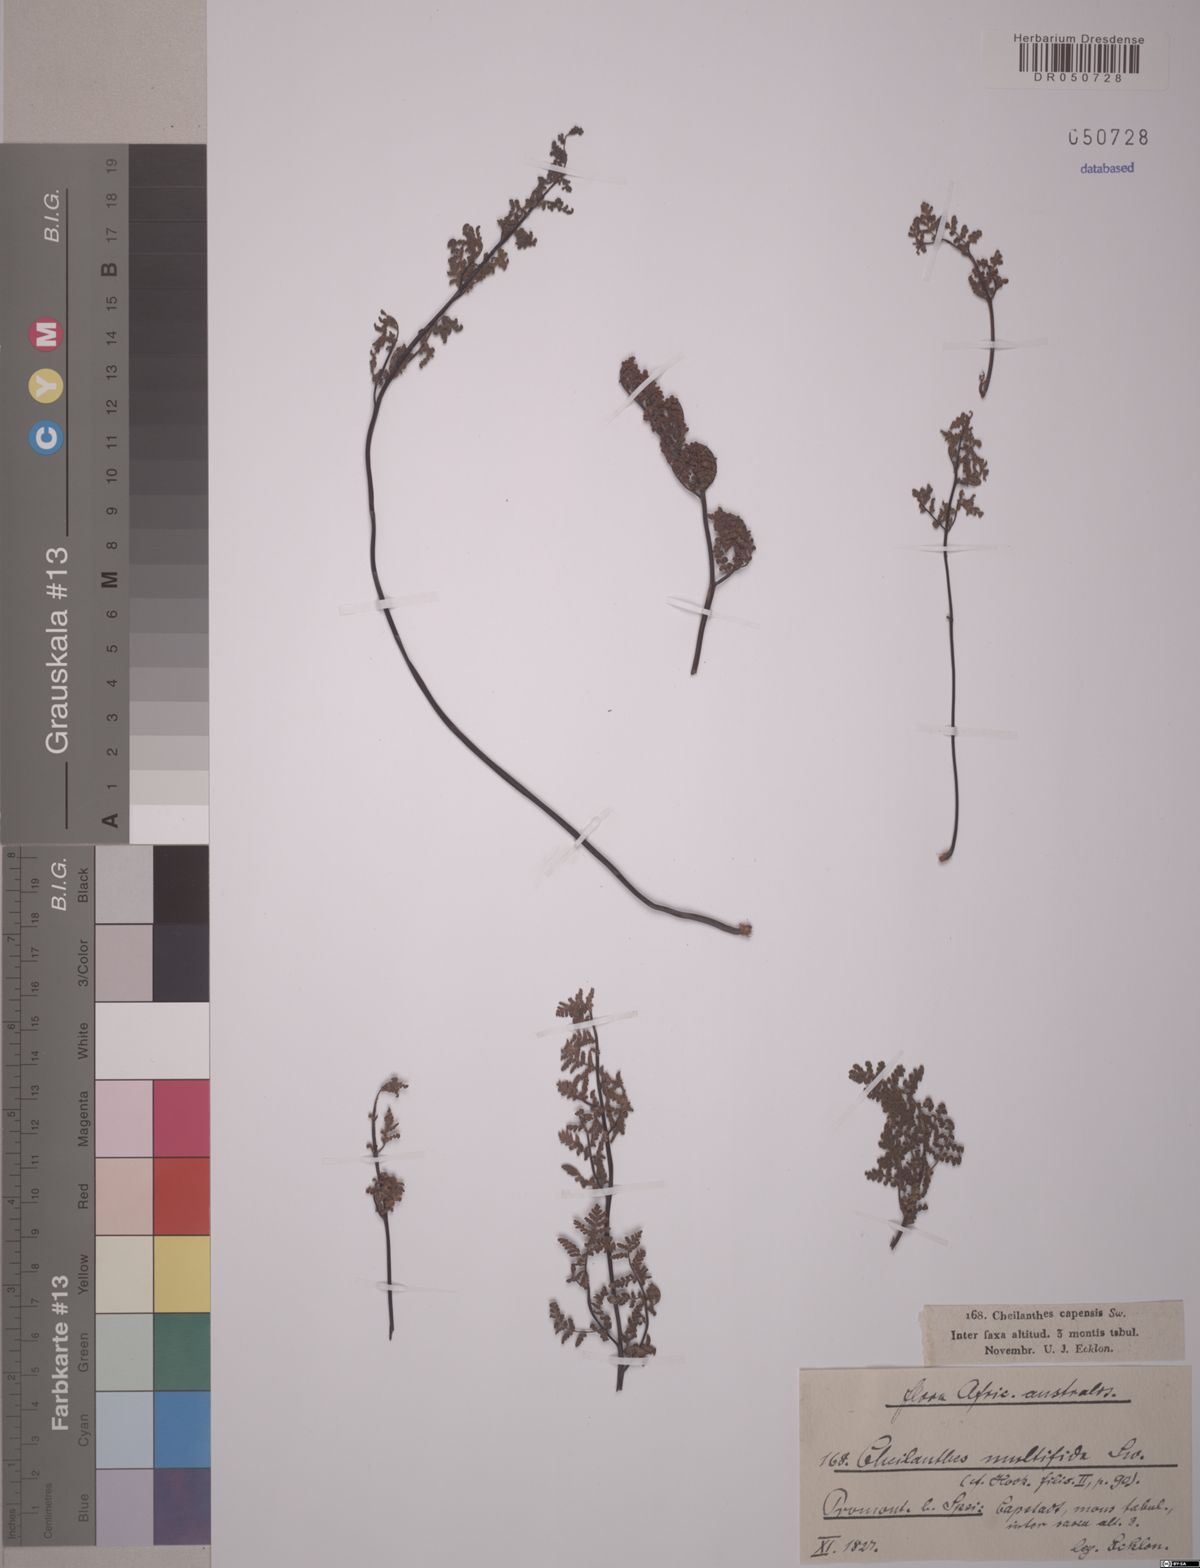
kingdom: Plantae
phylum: Tracheophyta
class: Polypodiopsida
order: Polypodiales
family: Pteridaceae
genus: Cheilanthes
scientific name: Cheilanthes multifida
